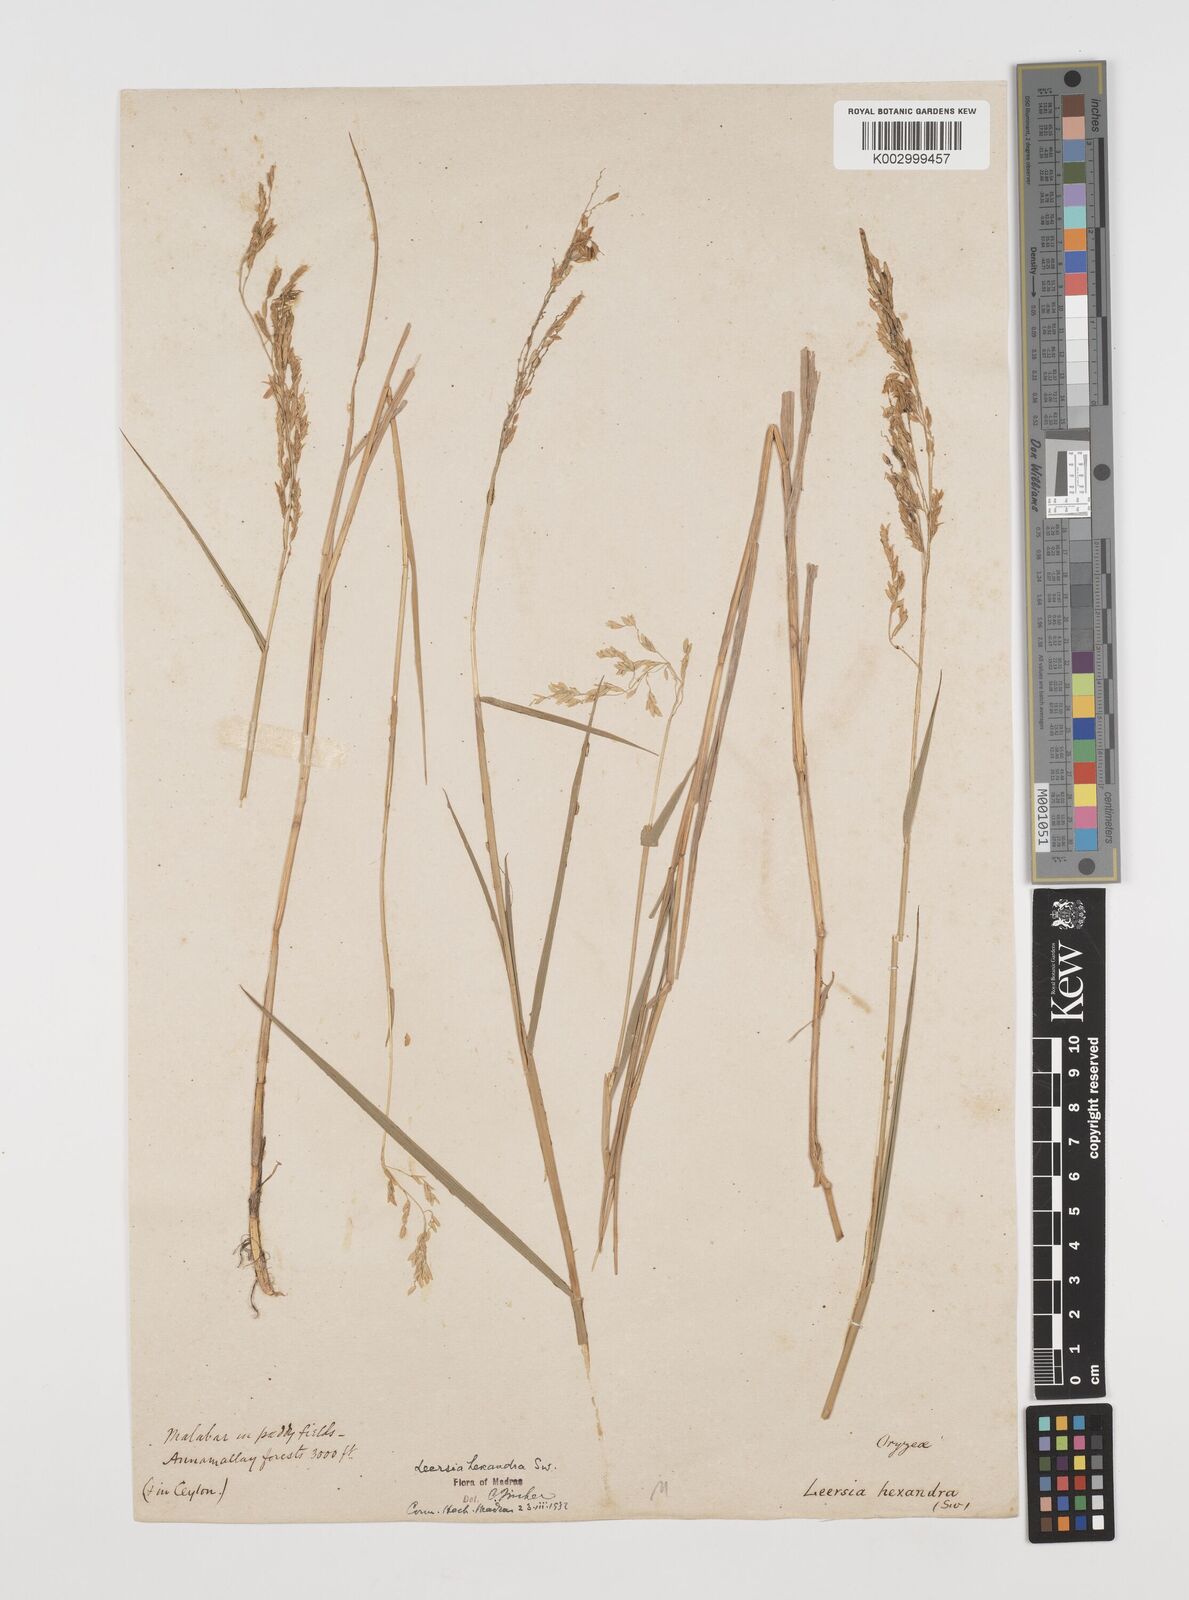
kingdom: Plantae
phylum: Tracheophyta
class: Liliopsida
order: Poales
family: Poaceae
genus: Leersia
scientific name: Leersia hexandra
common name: Southern cut grass
